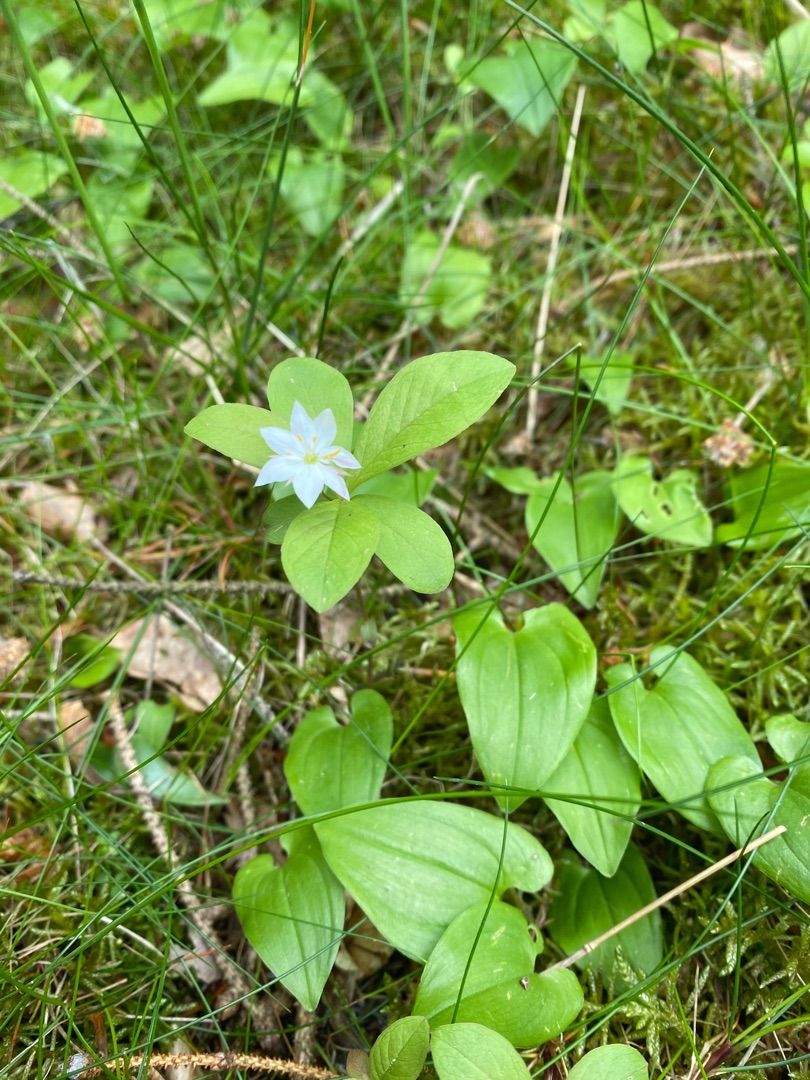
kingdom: Plantae
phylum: Tracheophyta
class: Magnoliopsida
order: Ericales
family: Primulaceae
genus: Lysimachia
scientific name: Lysimachia europaea
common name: Skovstjerne
